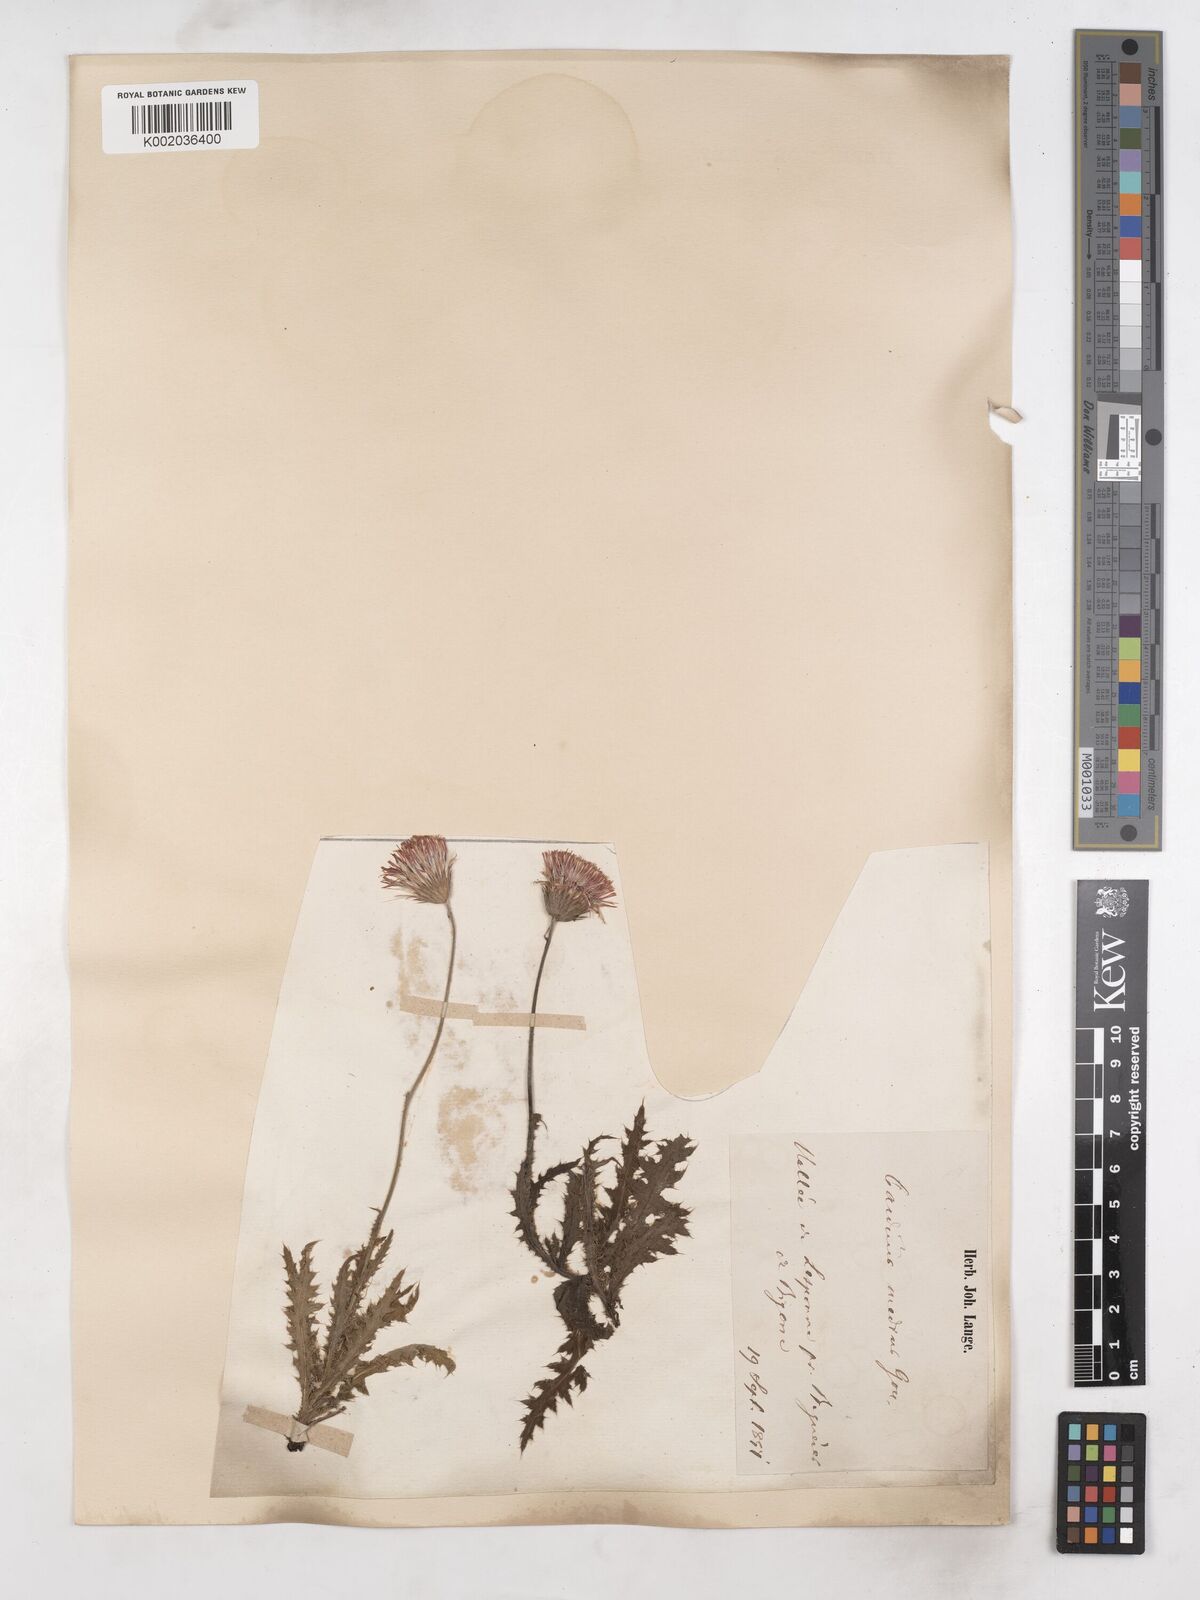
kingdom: Plantae
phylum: Tracheophyta
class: Magnoliopsida
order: Asterales
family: Asteraceae
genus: Carduus
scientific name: Carduus defloratus
